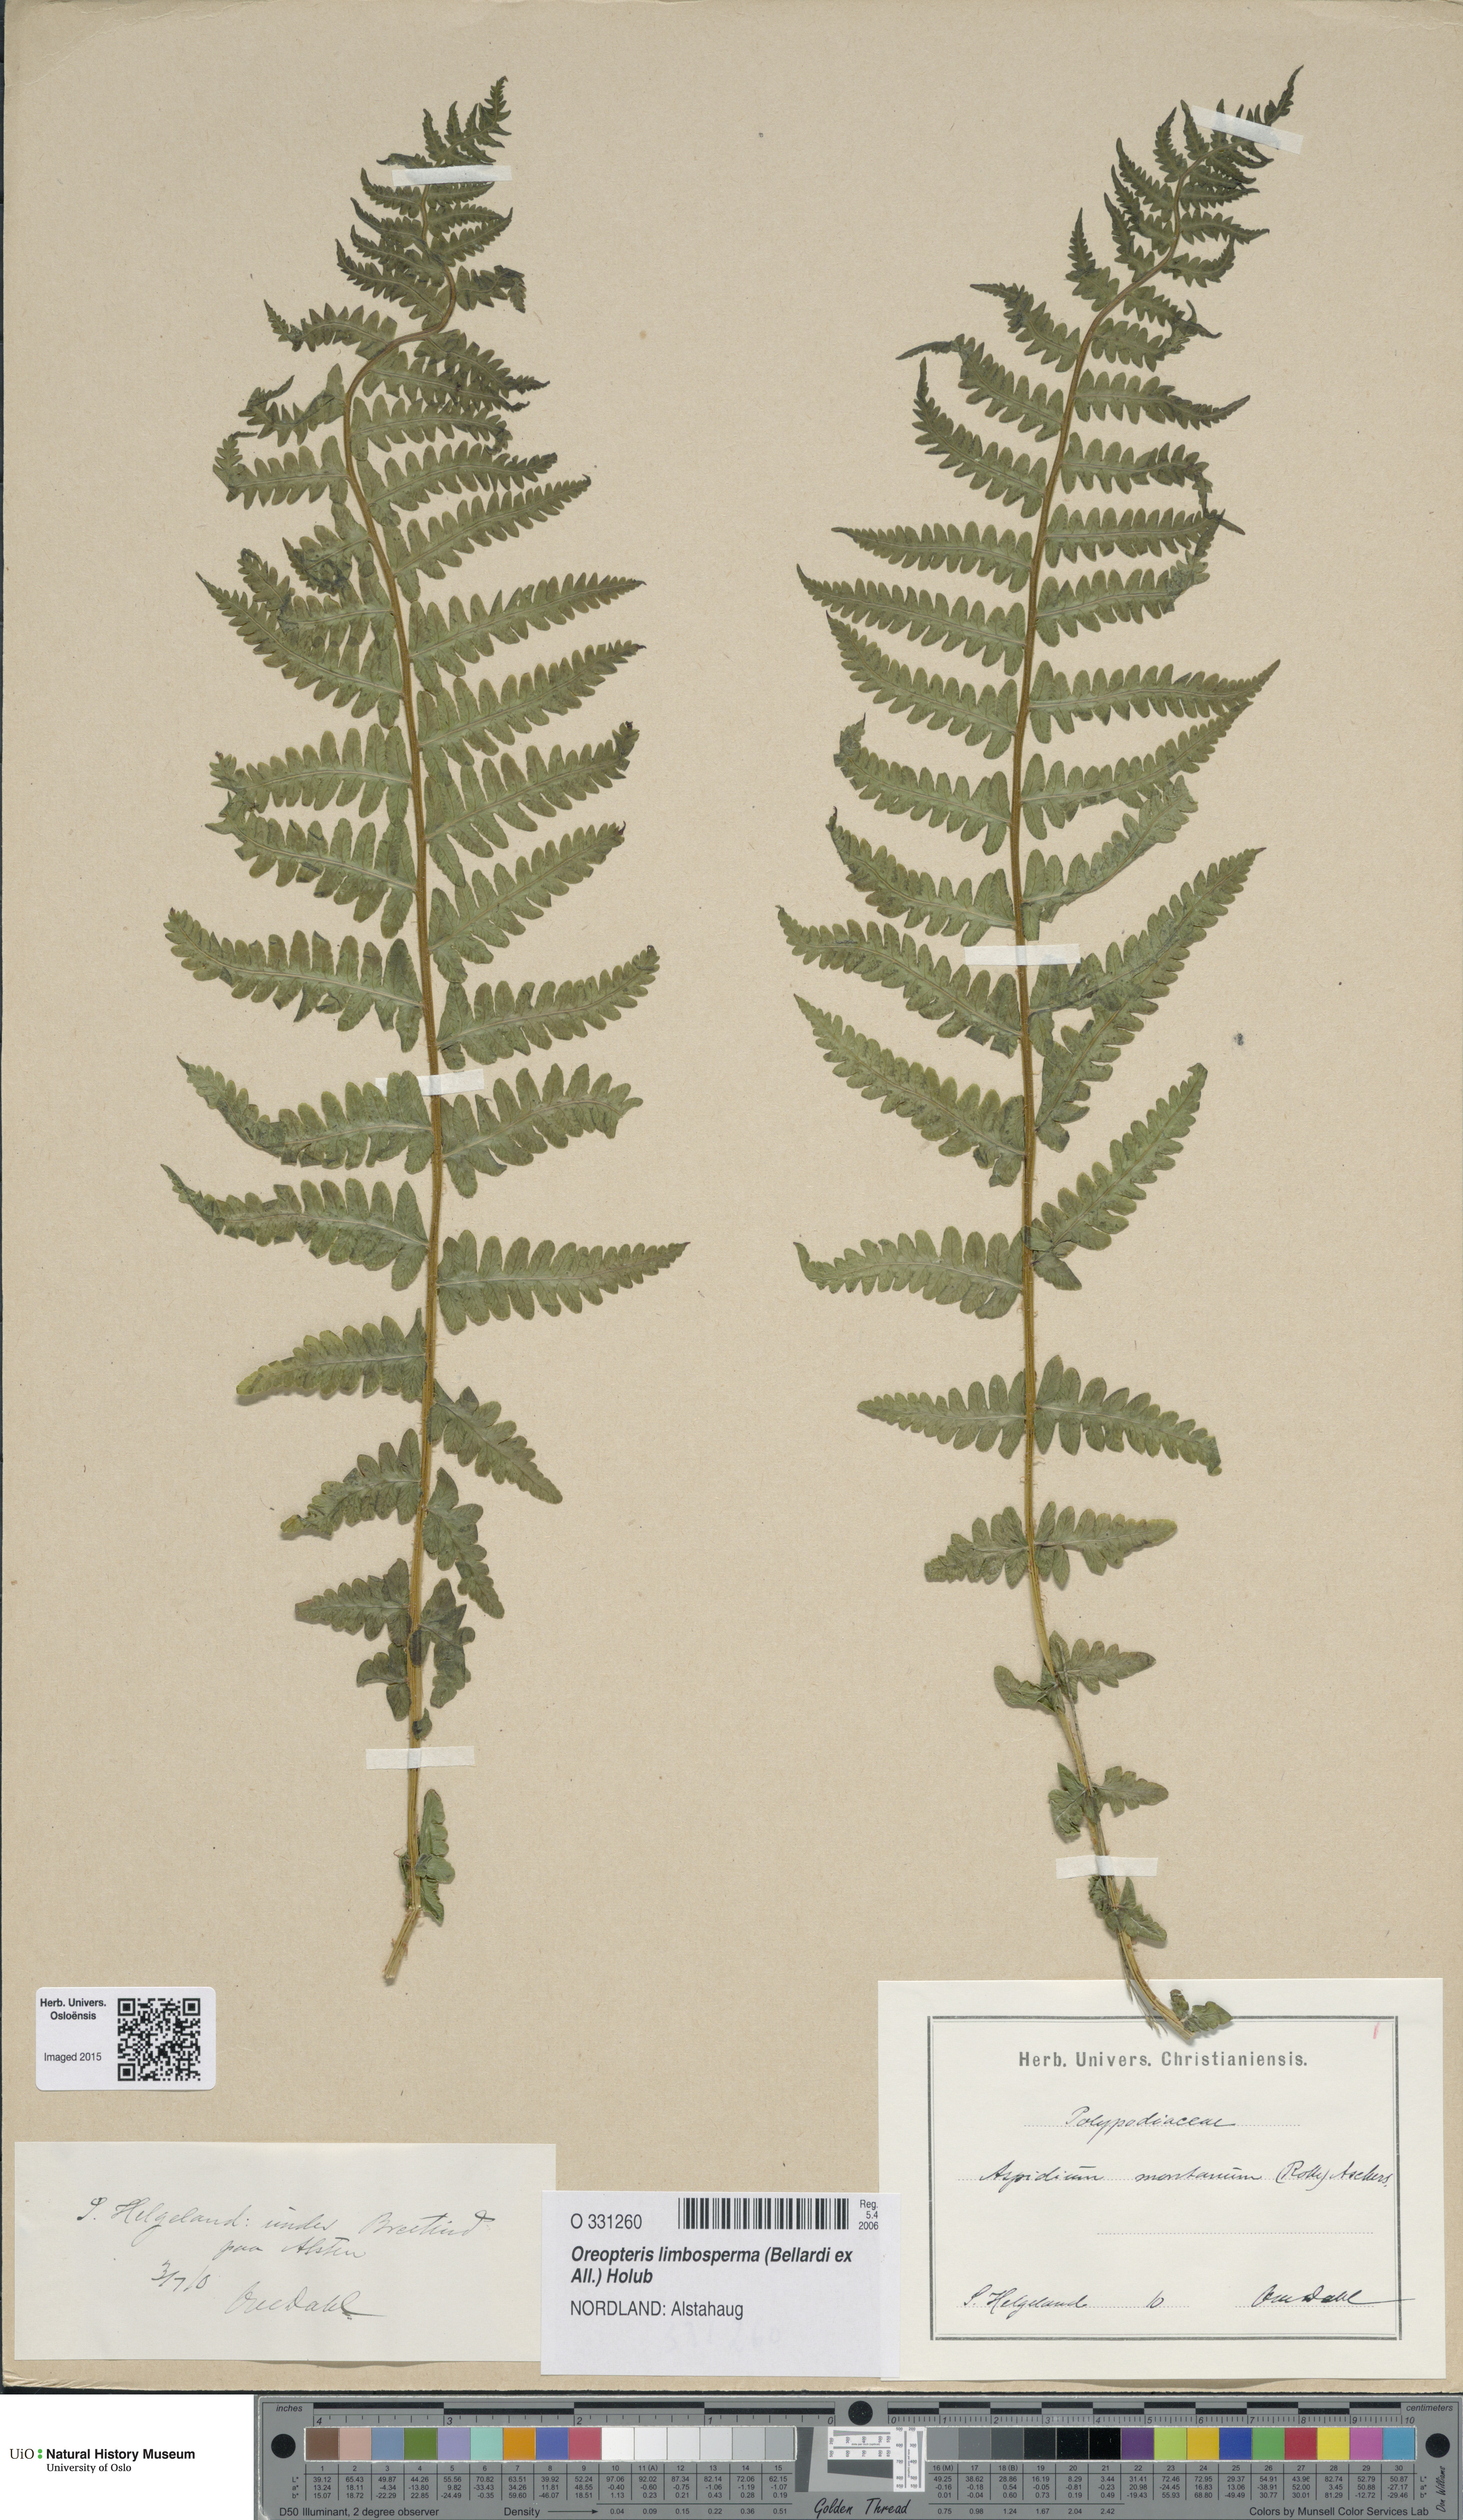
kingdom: Plantae
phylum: Tracheophyta
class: Polypodiopsida
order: Polypodiales
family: Thelypteridaceae
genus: Oreopteris
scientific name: Oreopteris limbosperma
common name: Lemon-scented fern
